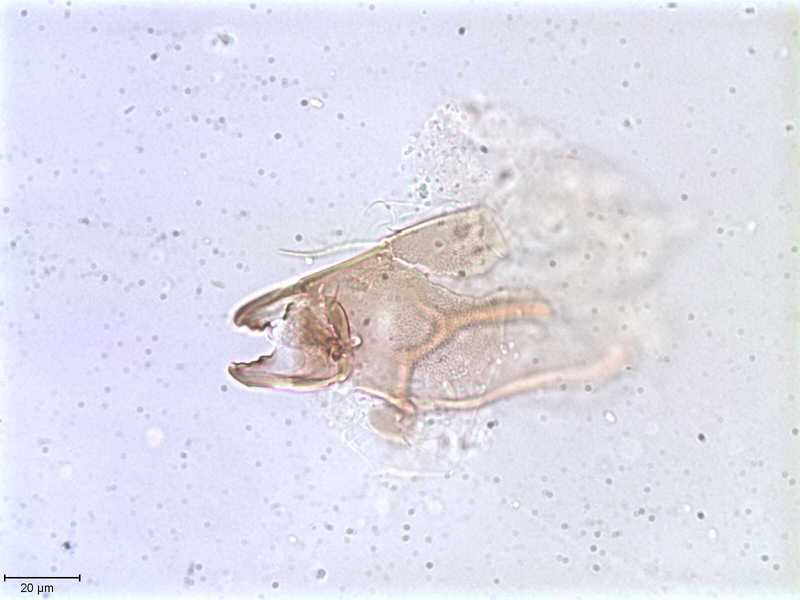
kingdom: Animalia
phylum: Arthropoda
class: Arachnida
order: Sarcoptiformes
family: Oribatulidae
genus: Oribatula
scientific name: Oribatula
